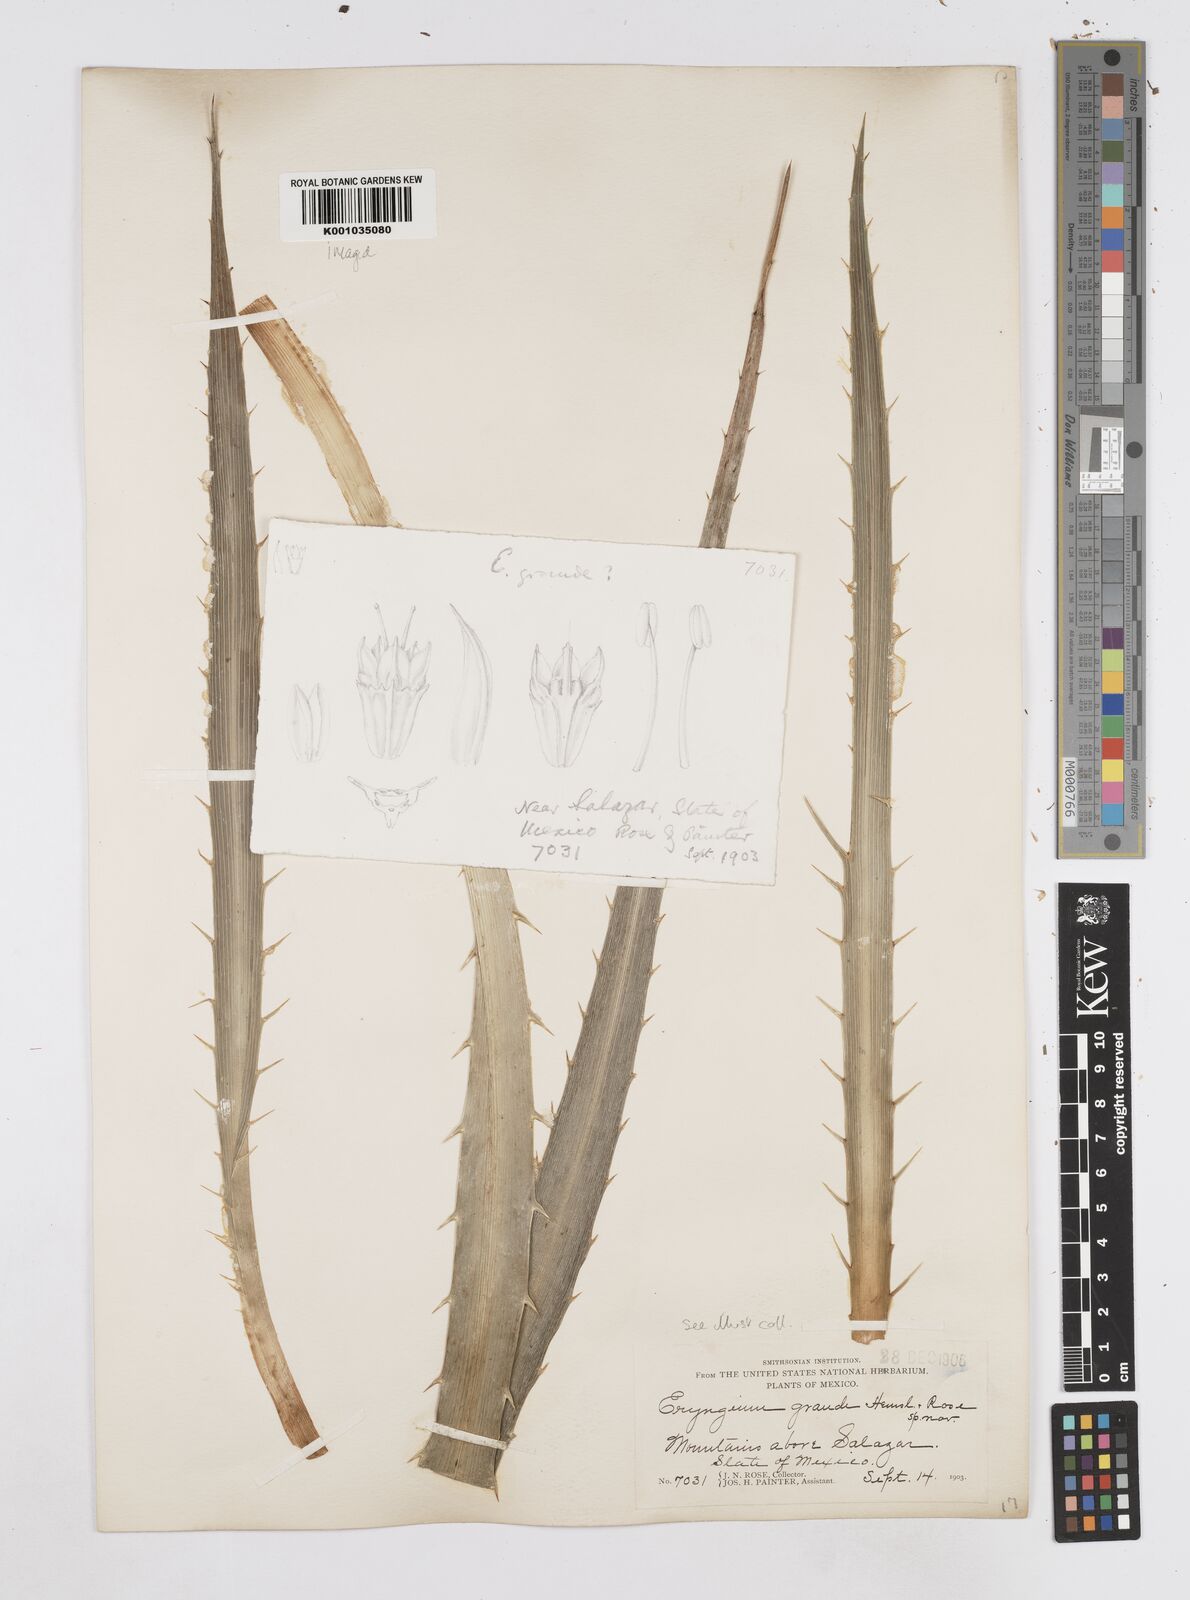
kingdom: Plantae
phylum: Tracheophyta
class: Magnoliopsida
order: Apiales
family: Apiaceae
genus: Eryngium
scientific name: Eryngium monocephalum
